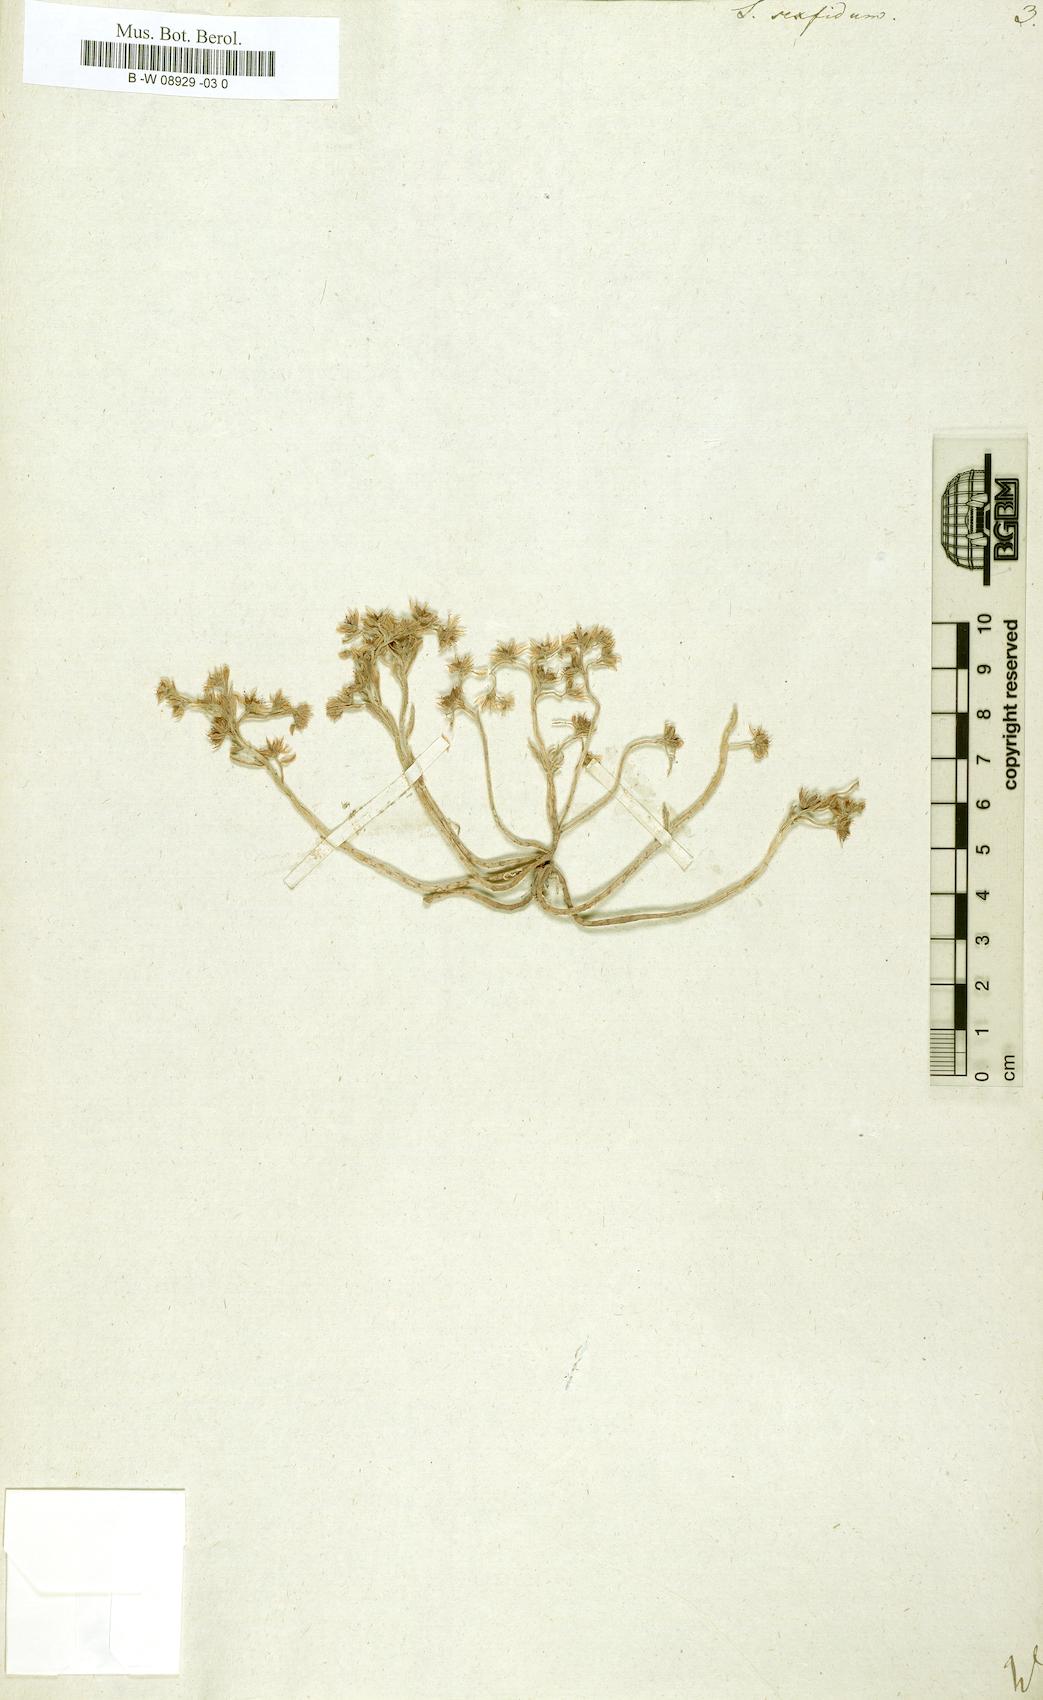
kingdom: Plantae
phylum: Tracheophyta
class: Magnoliopsida
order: Saxifragales
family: Crassulaceae
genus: Sedum
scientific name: Sedum hispanicum
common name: Spanish stonecrop
